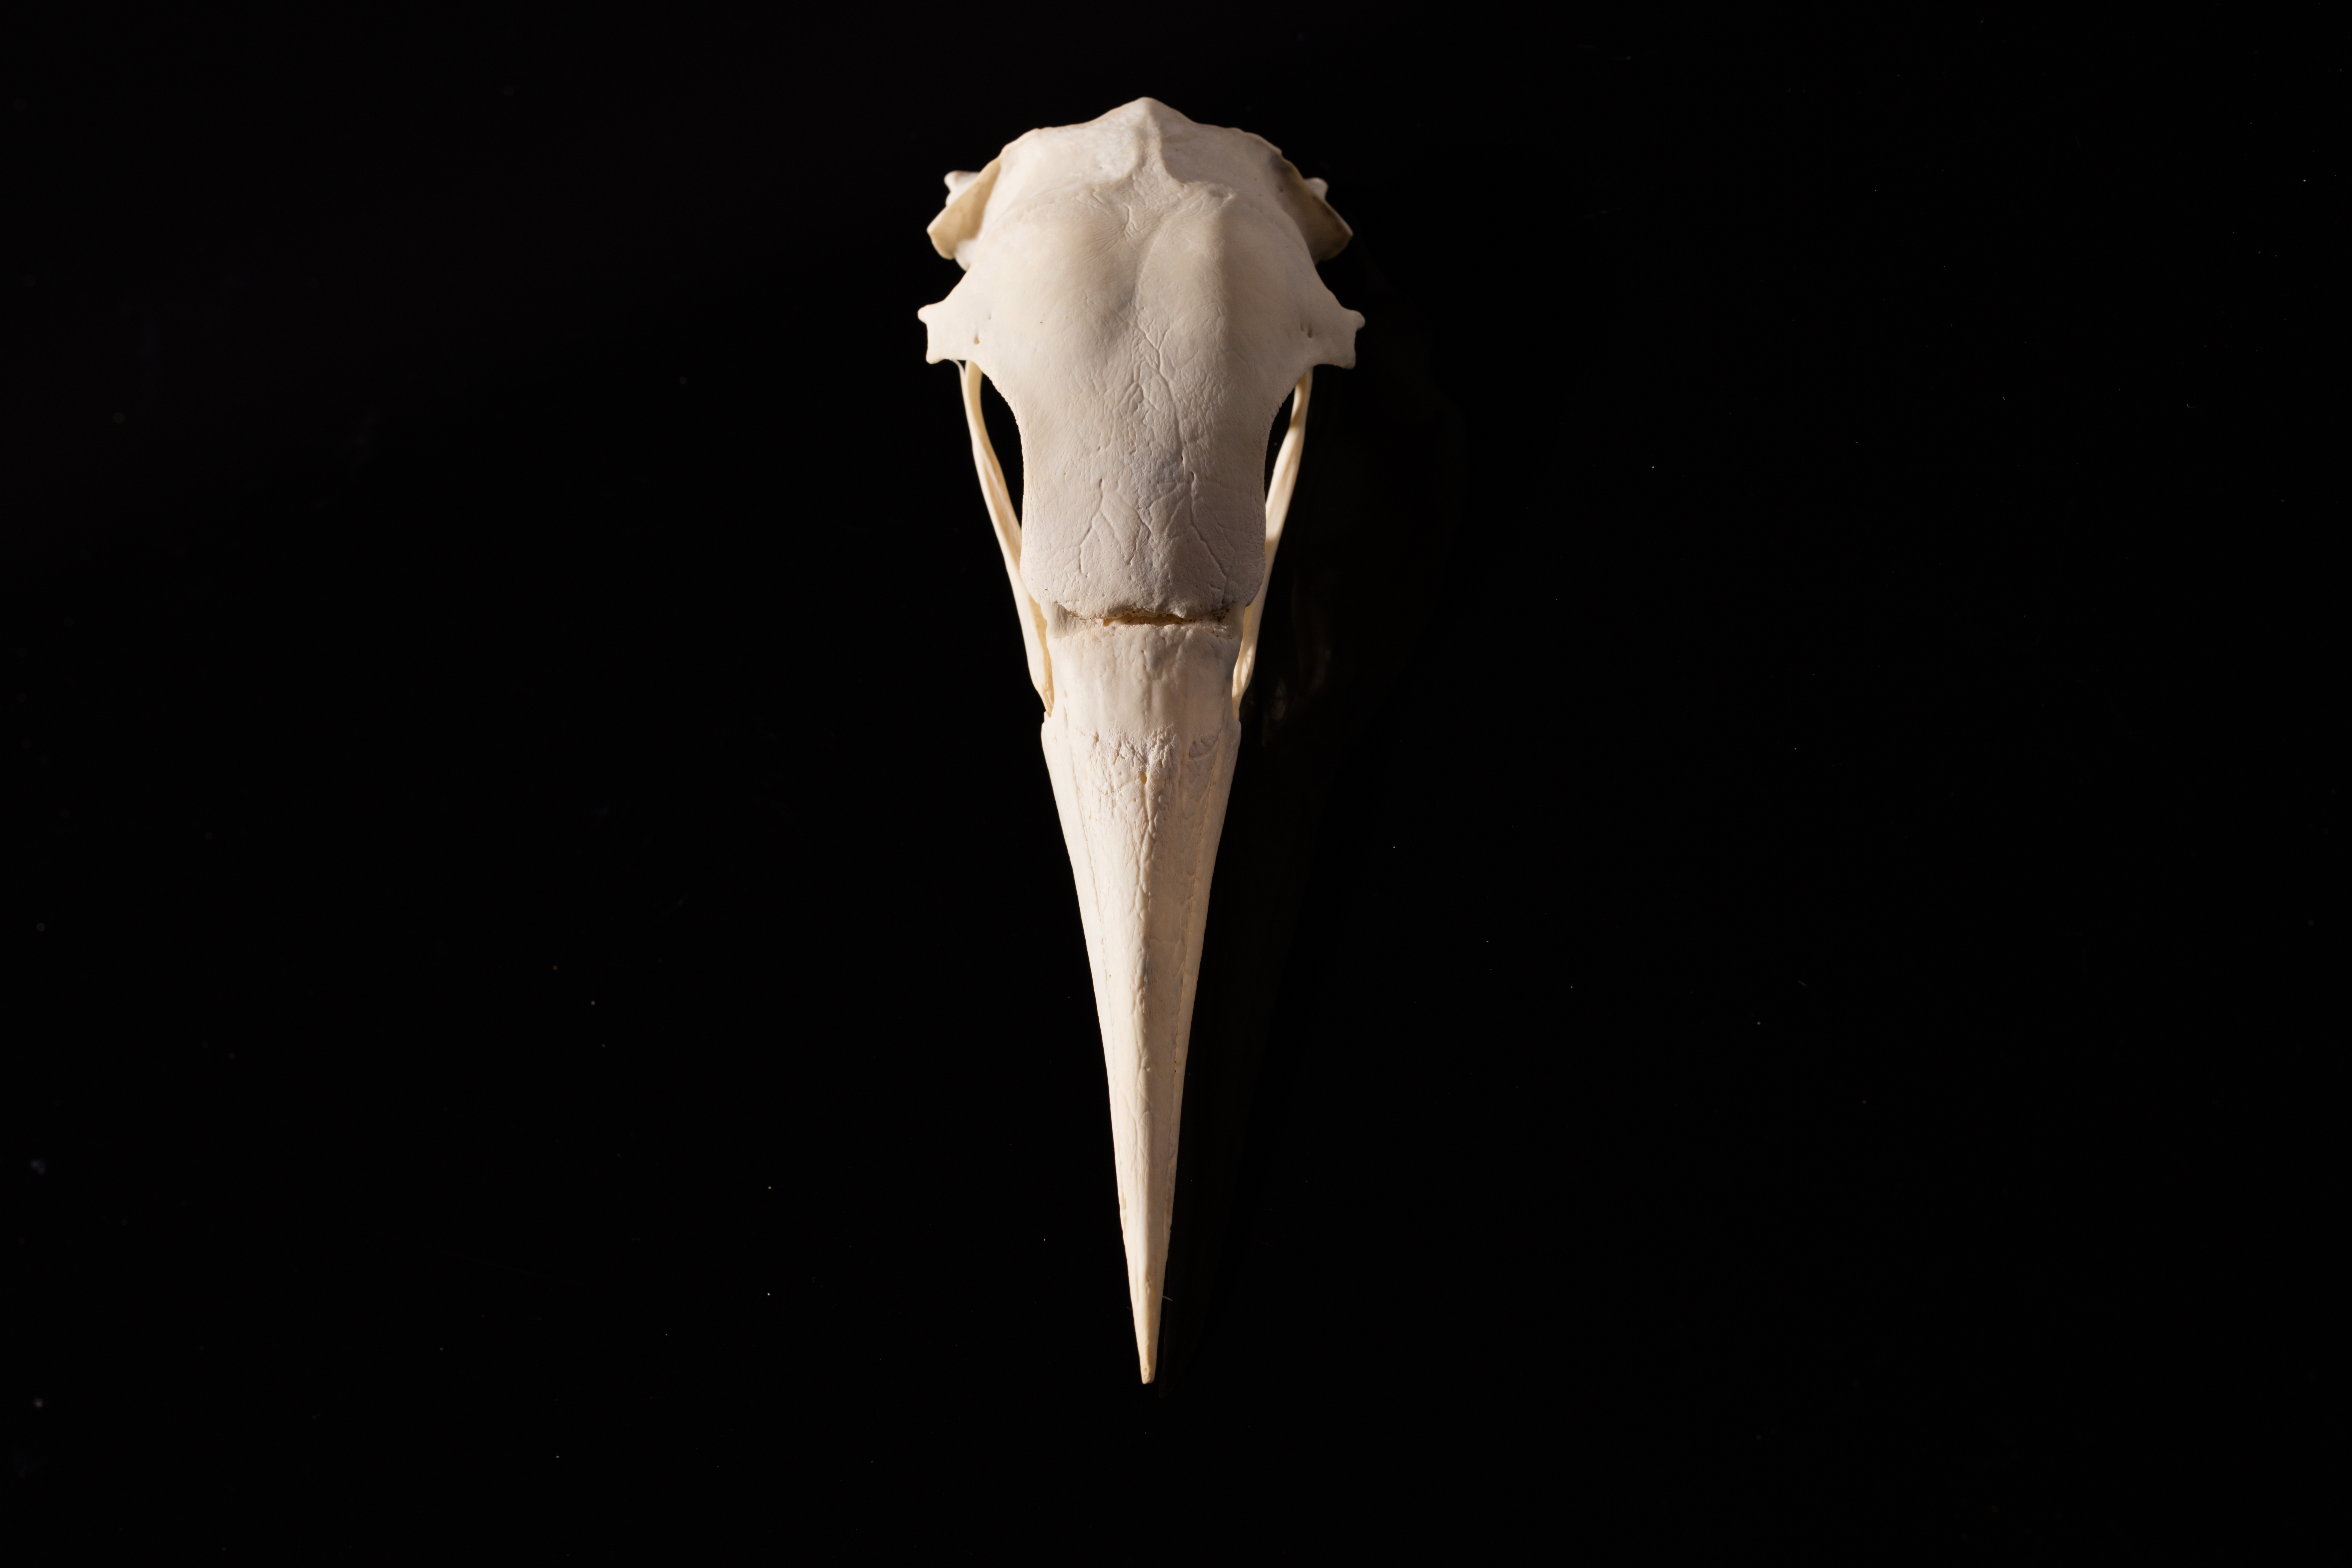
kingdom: Animalia
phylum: Chordata
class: Aves
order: Suliformes
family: Phalacrocoracidae
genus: Microcarbo
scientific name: Microcarbo melanoleucos
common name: Little pied cormorant
